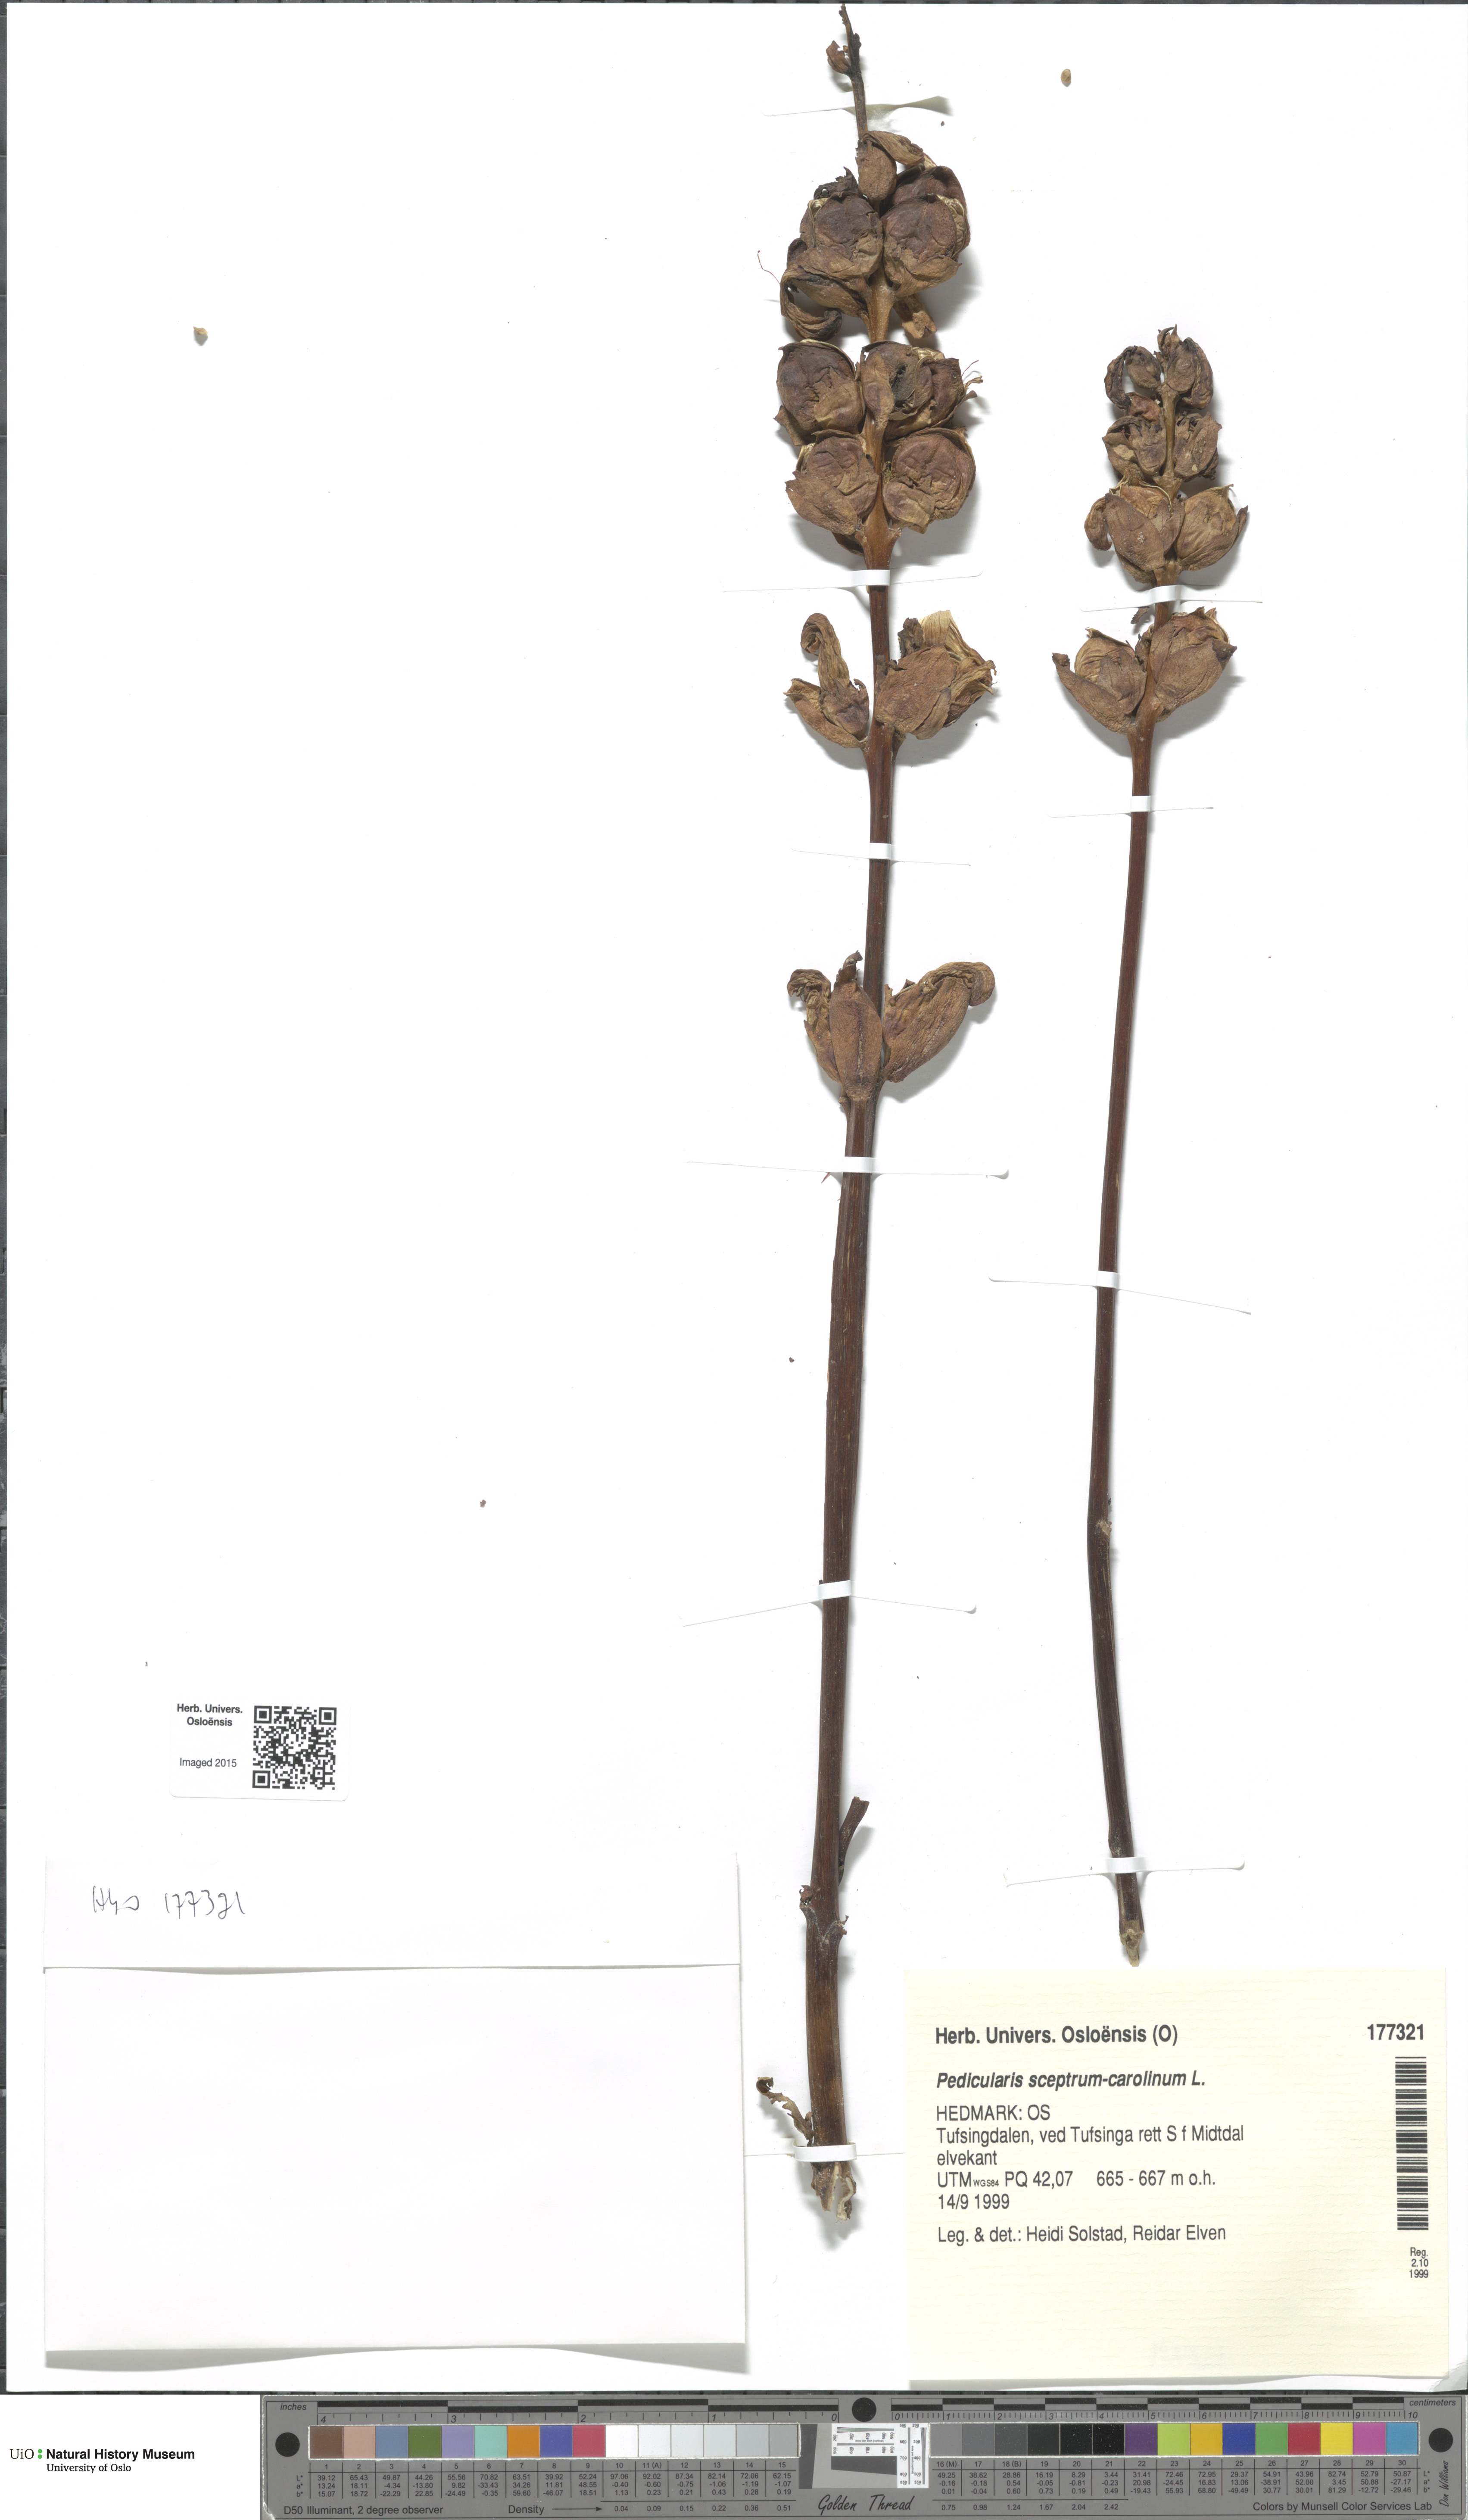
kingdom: Plantae
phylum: Tracheophyta
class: Magnoliopsida
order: Lamiales
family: Orobanchaceae
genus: Pedicularis
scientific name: Pedicularis sceptrum-carolinum
